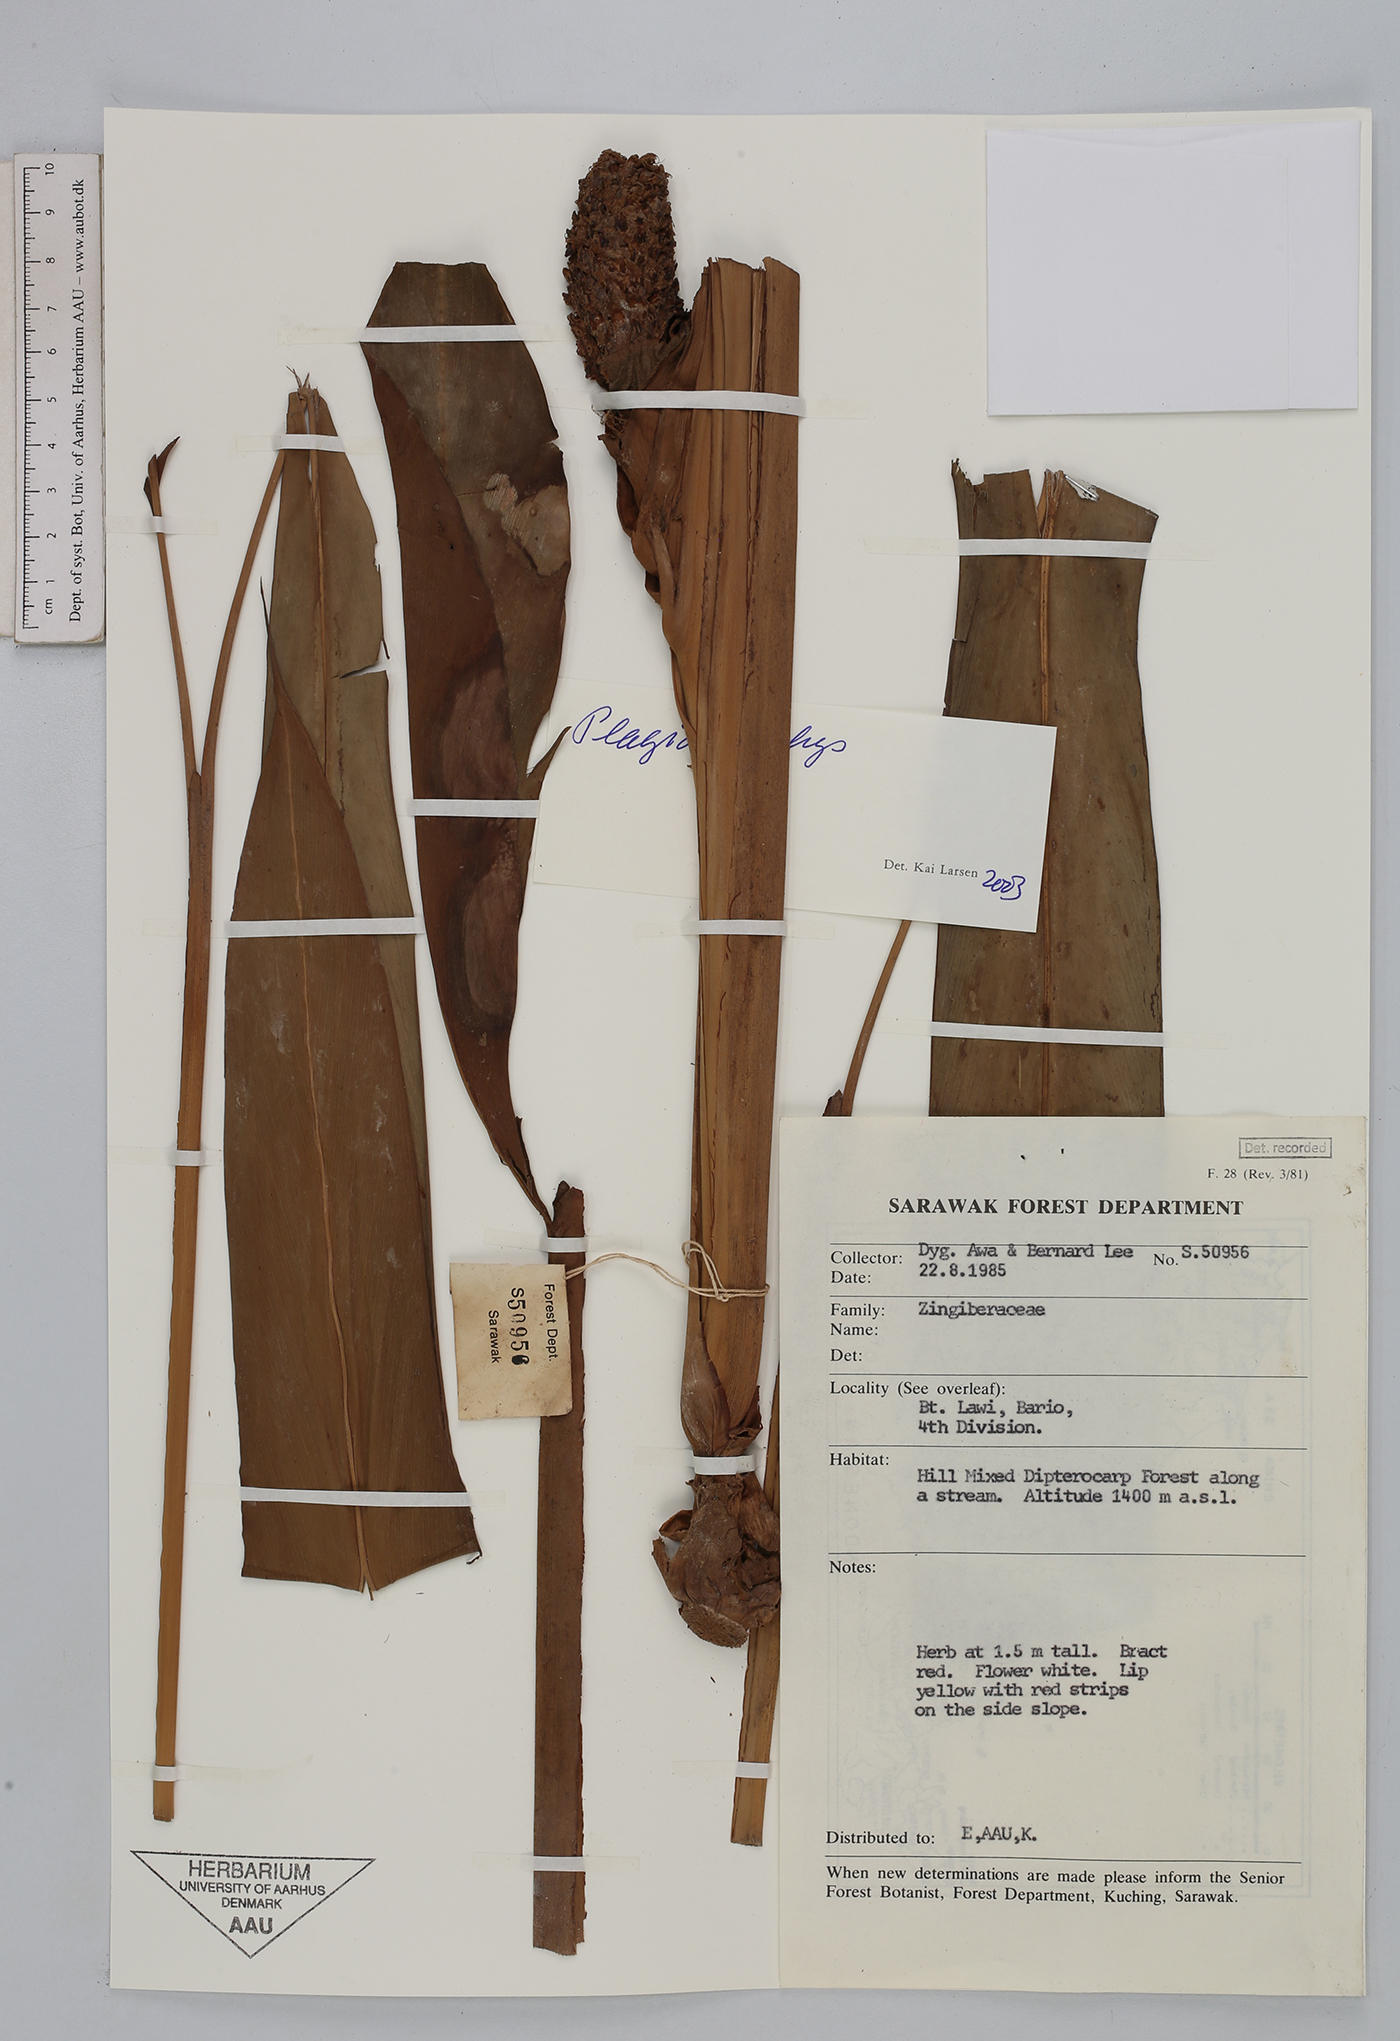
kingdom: Plantae
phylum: Tracheophyta
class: Liliopsida
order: Zingiberales
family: Zingiberaceae
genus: Plagiostachys
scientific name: Plagiostachys
